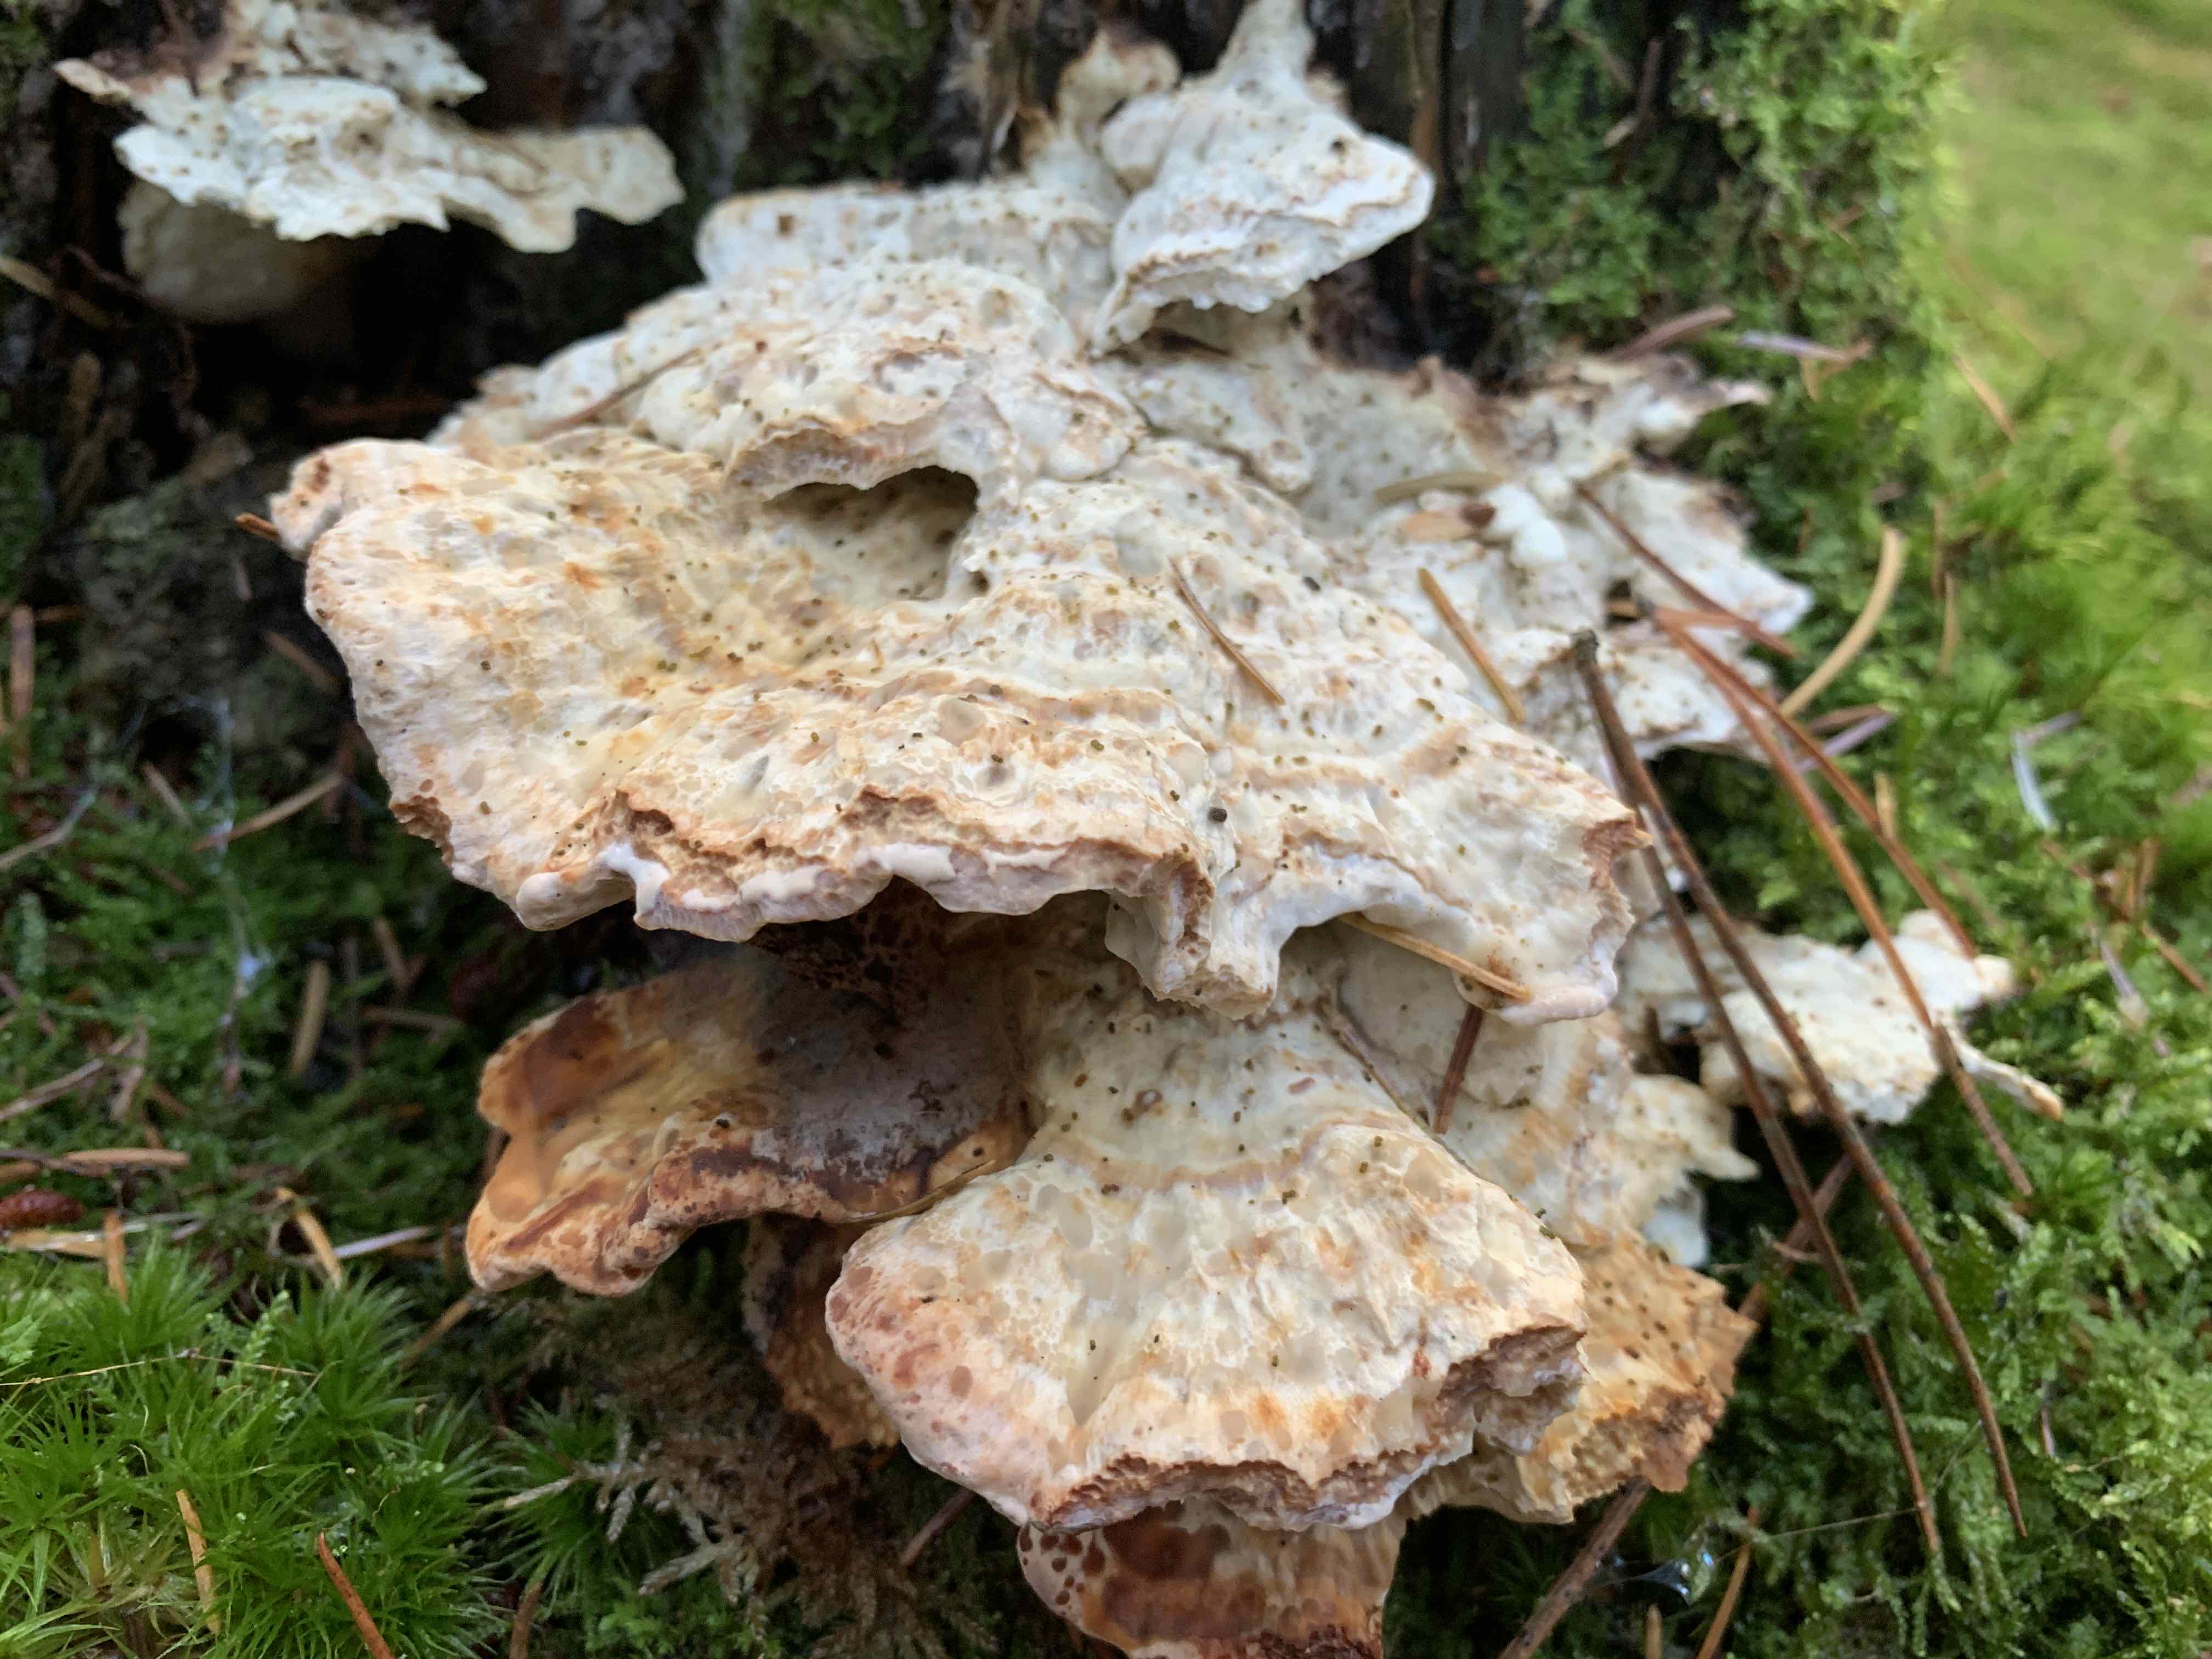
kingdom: Fungi
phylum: Basidiomycota
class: Agaricomycetes
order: Polyporales
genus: Calcipostia
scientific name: Calcipostia guttulata
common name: dråbe-kødporesvamp
